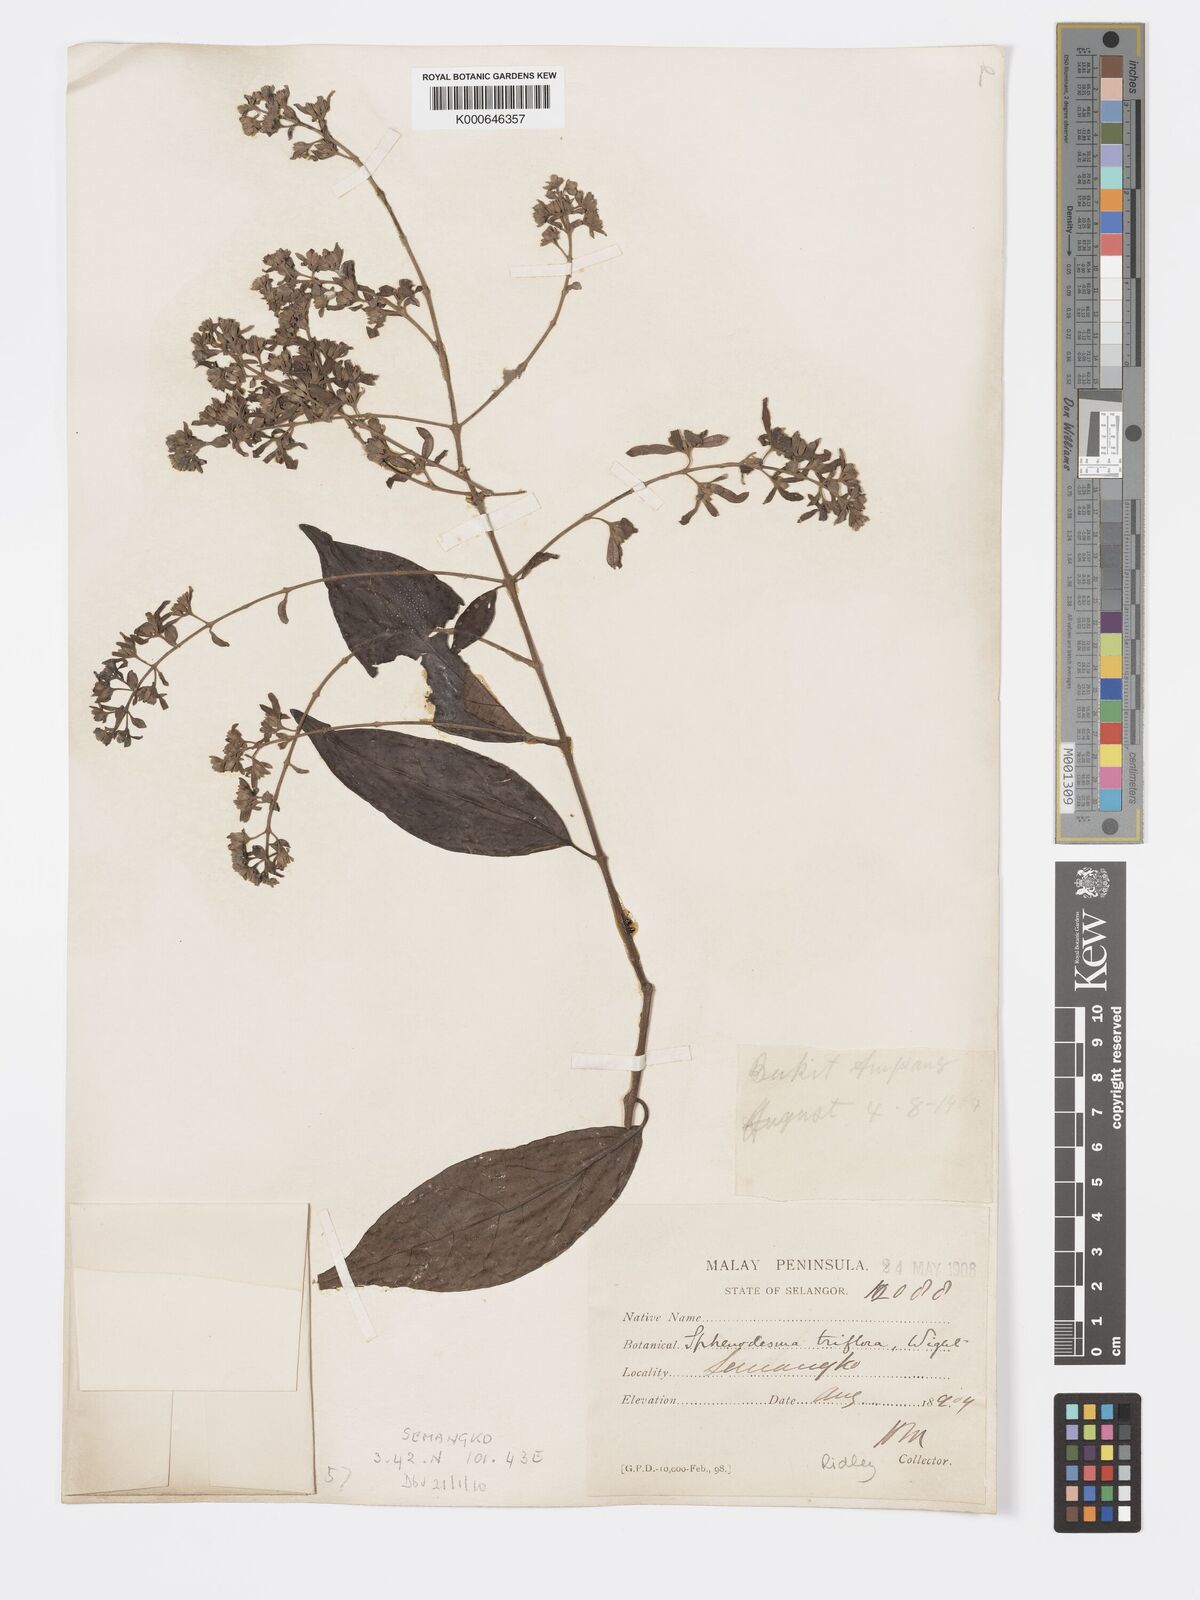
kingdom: Plantae
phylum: Tracheophyta
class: Magnoliopsida
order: Lamiales
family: Lamiaceae
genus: Sphenodesme
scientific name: Sphenodesme
